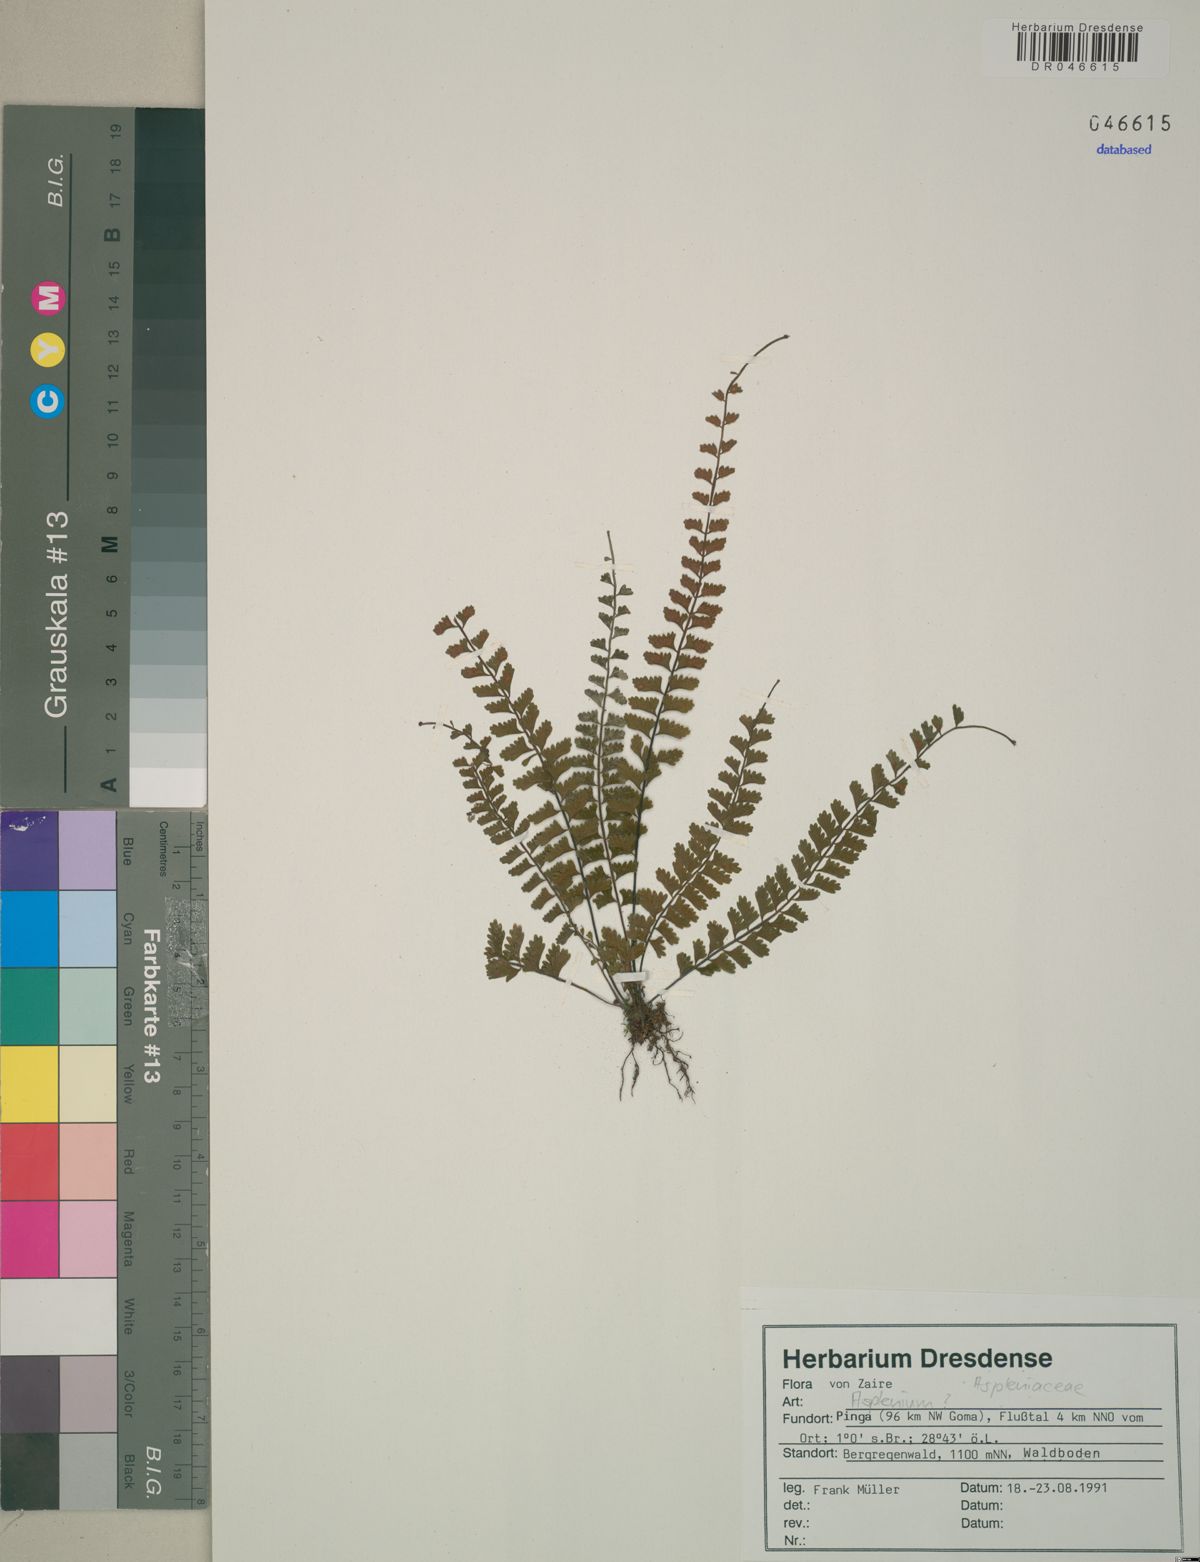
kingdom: Plantae
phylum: Tracheophyta
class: Polypodiopsida
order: Polypodiales
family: Aspleniaceae
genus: Asplenium
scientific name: Asplenium
